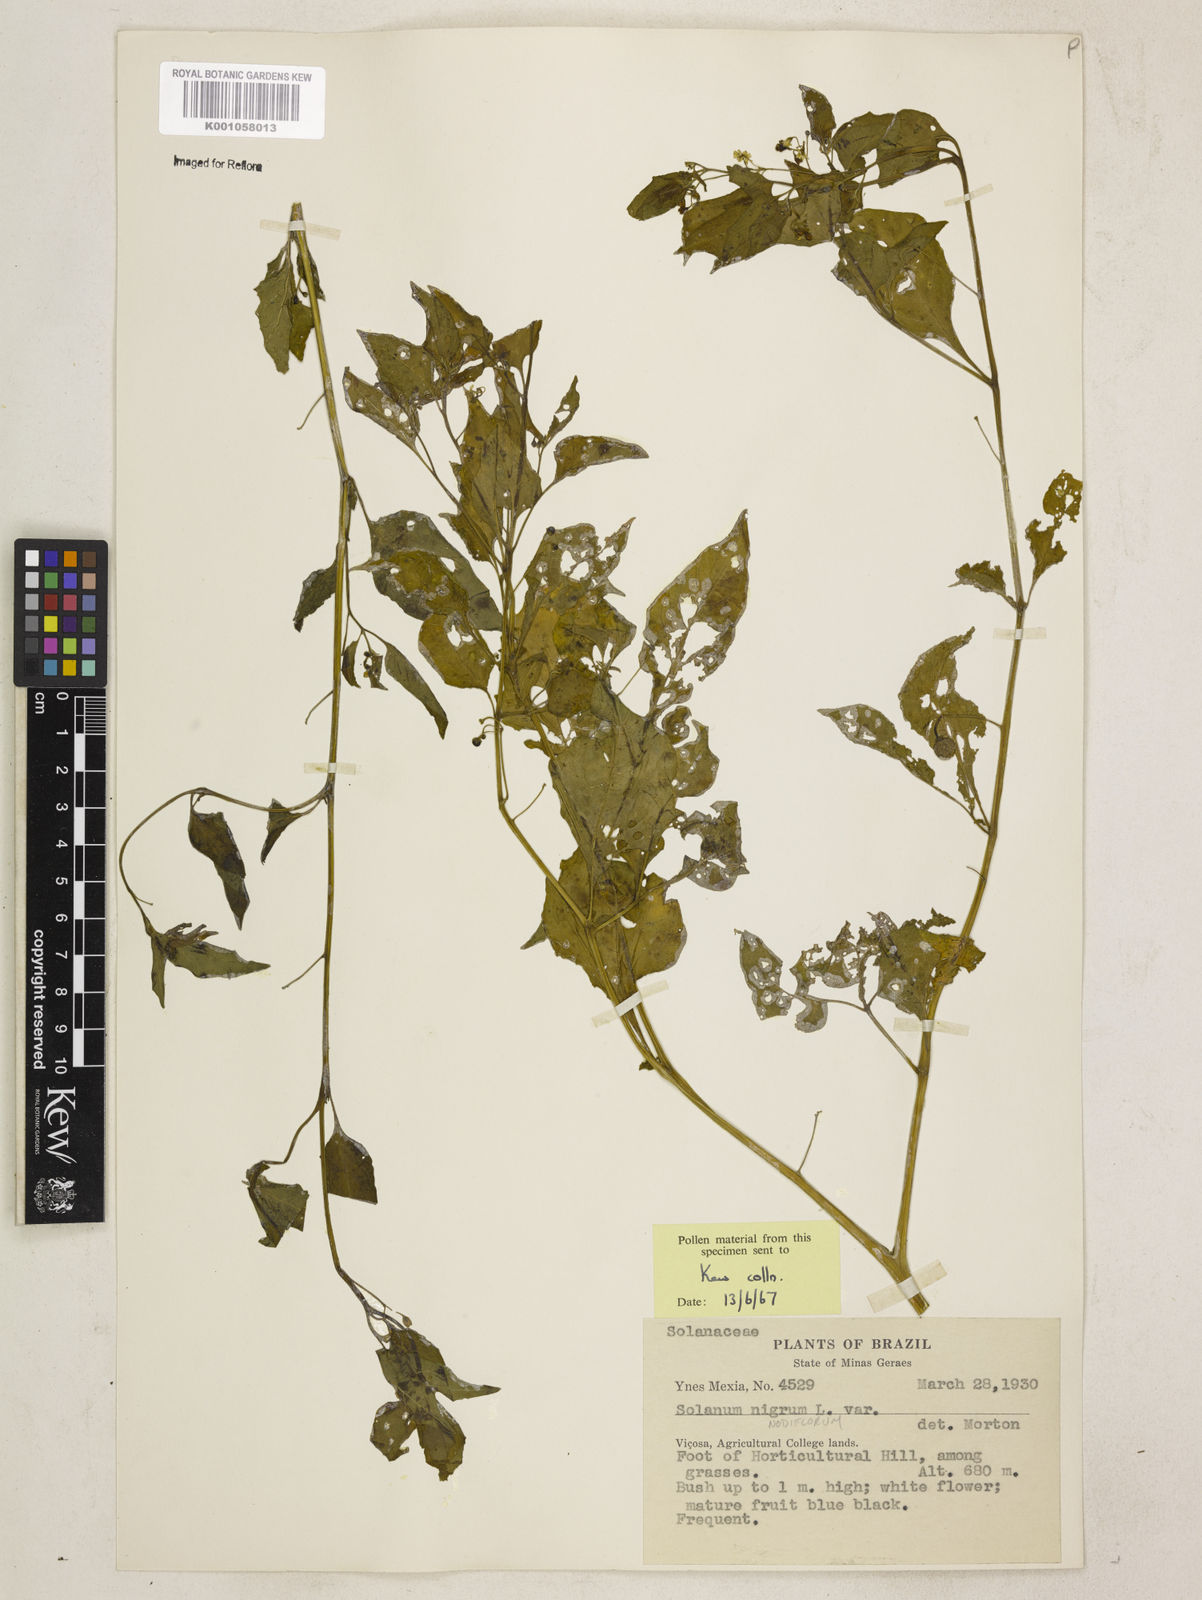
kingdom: Plantae
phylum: Tracheophyta
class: Magnoliopsida
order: Solanales
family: Solanaceae
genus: Solanum
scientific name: Solanum americanum
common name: American black nightshade
